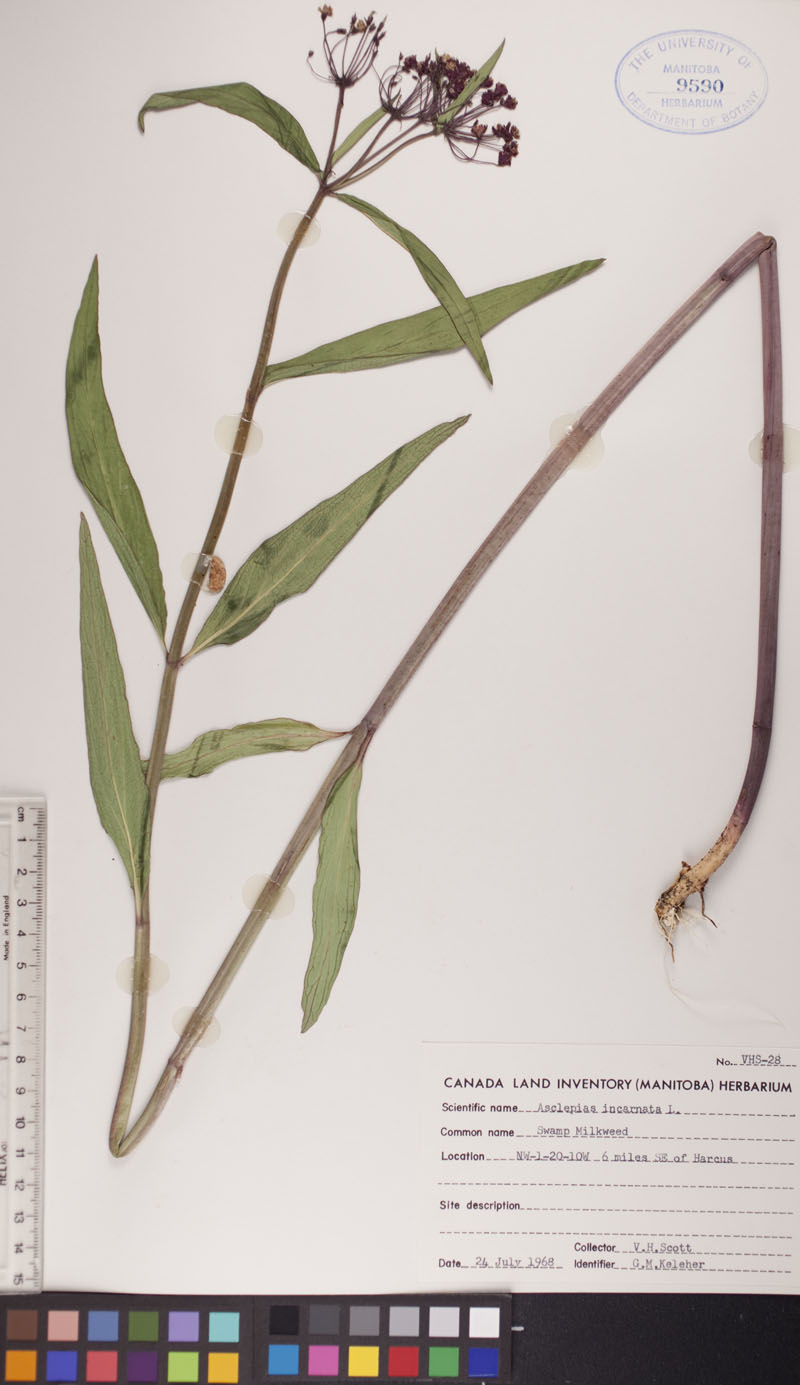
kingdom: Plantae
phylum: Tracheophyta
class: Magnoliopsida
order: Gentianales
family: Apocynaceae
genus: Asclepias
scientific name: Asclepias incarnata
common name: Swamp milkweed
